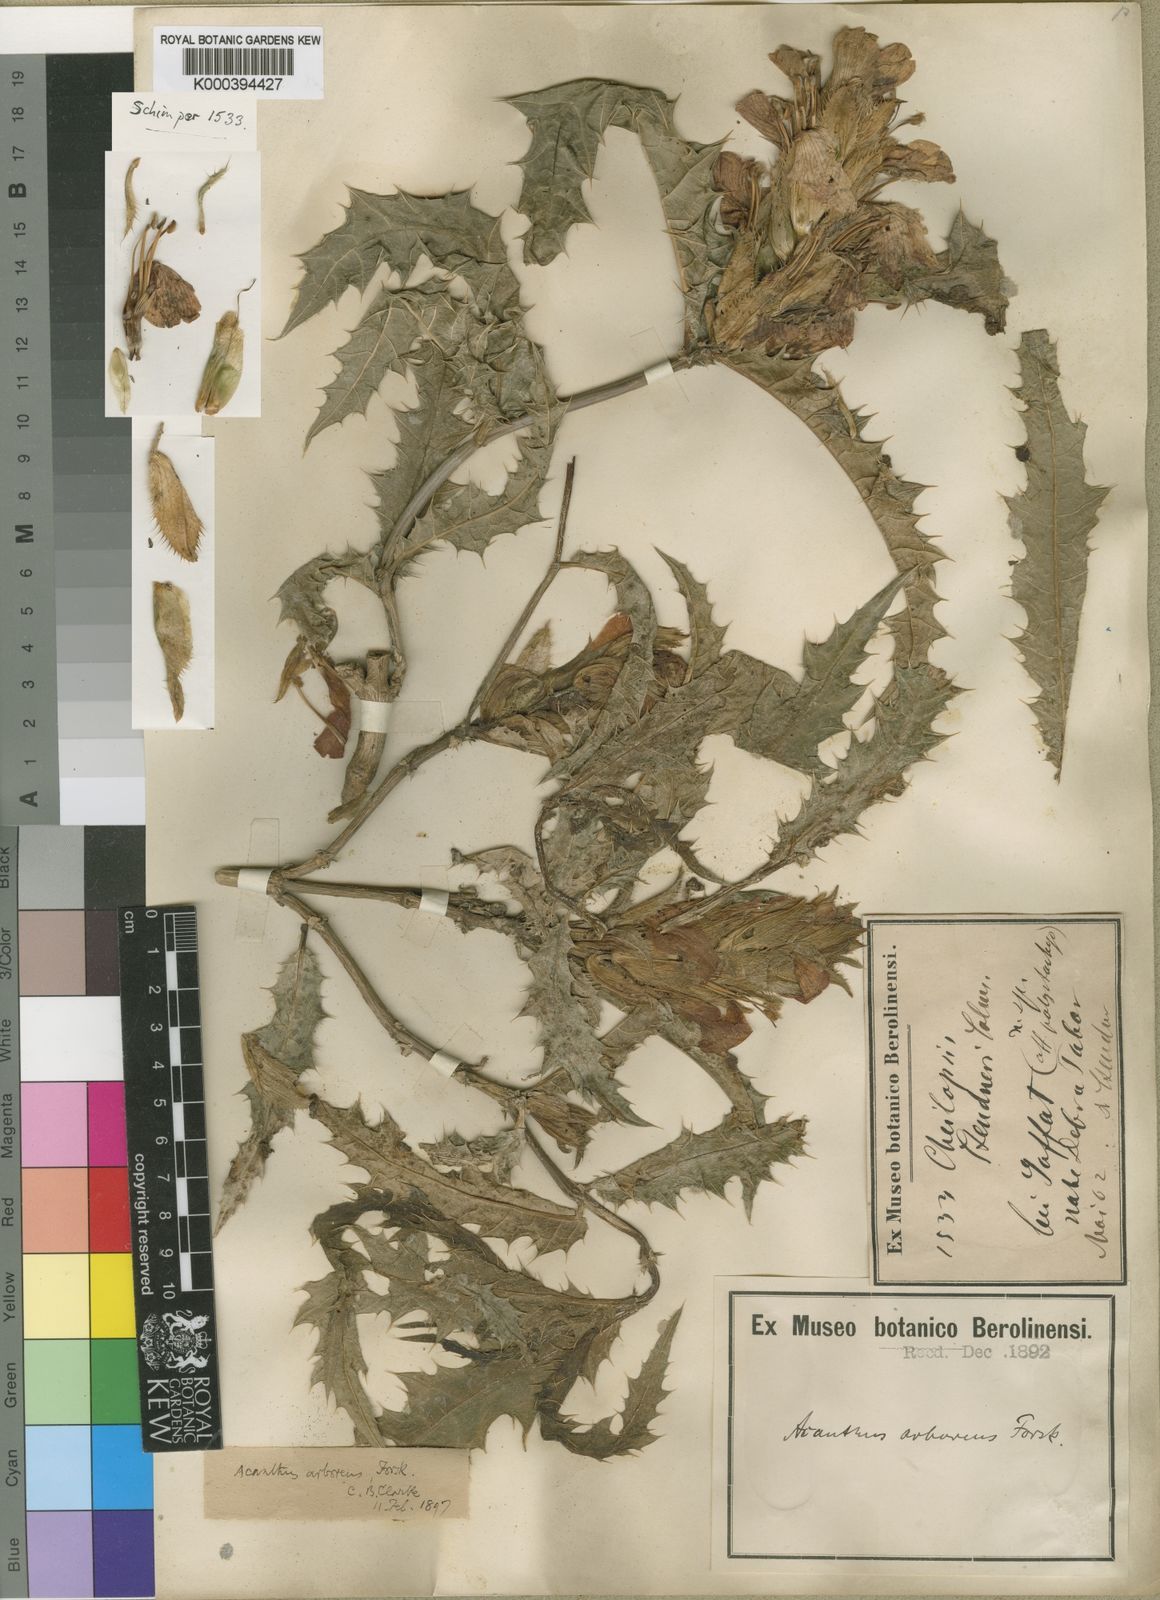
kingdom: Plantae
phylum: Tracheophyta
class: Magnoliopsida
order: Lamiales
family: Acanthaceae
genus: Acanthus
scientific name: Acanthus sennii
